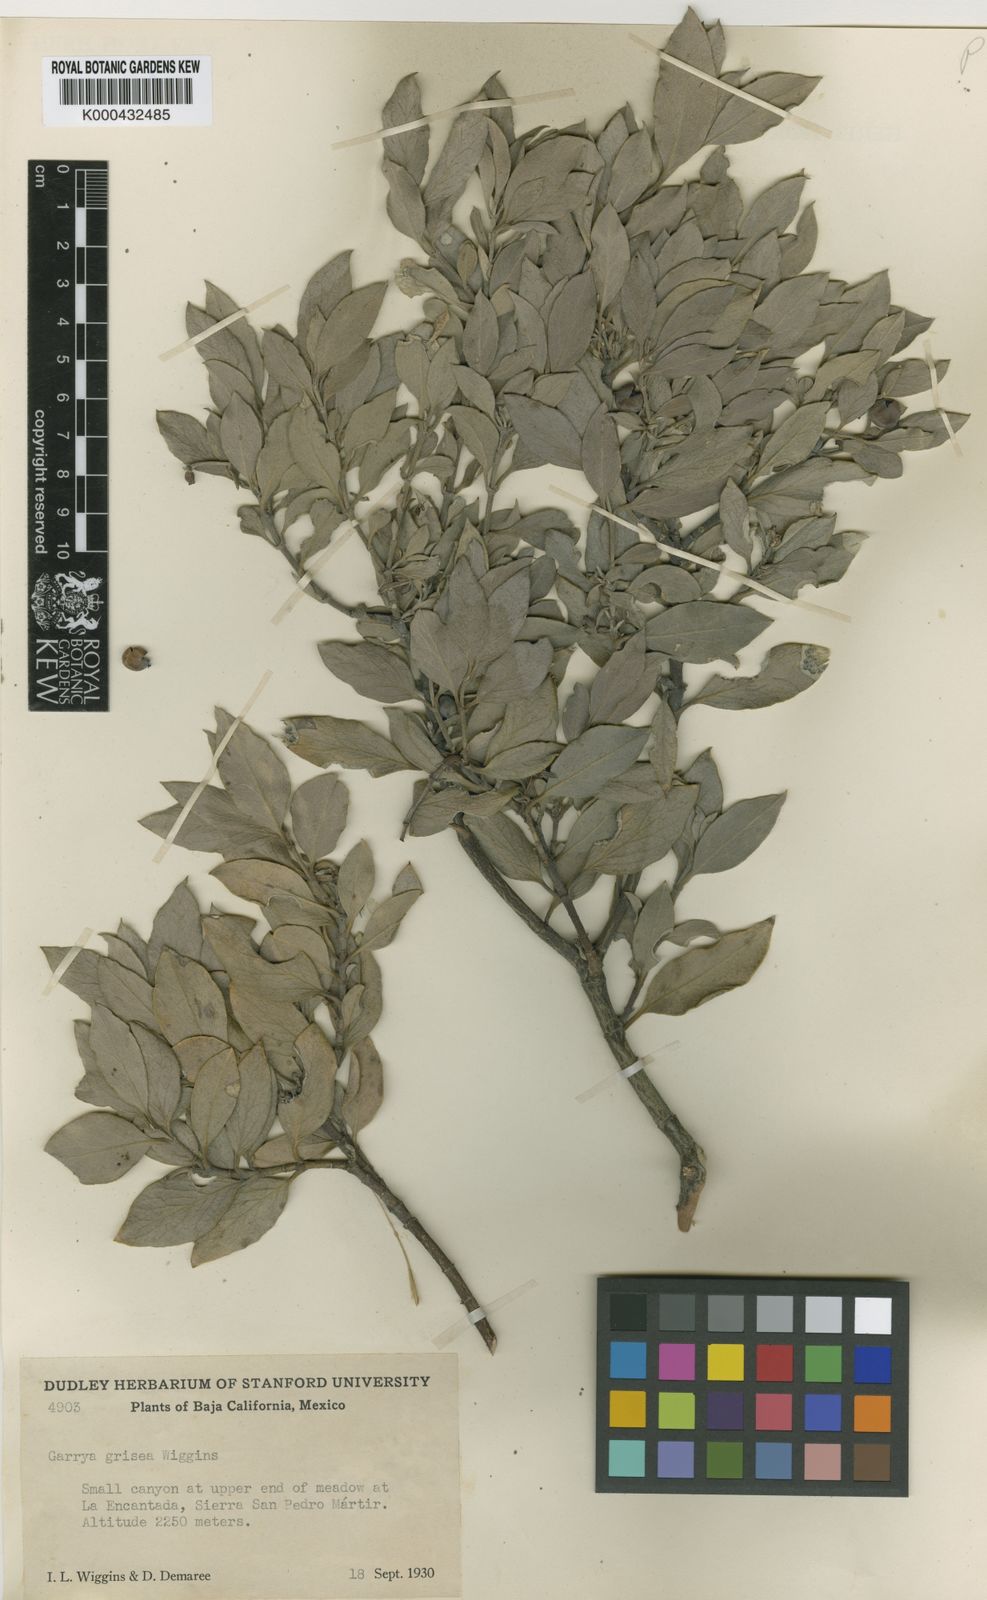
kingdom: Plantae
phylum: Tracheophyta
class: Magnoliopsida
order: Garryales
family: Garryaceae
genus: Garrya
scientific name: Garrya grisea
